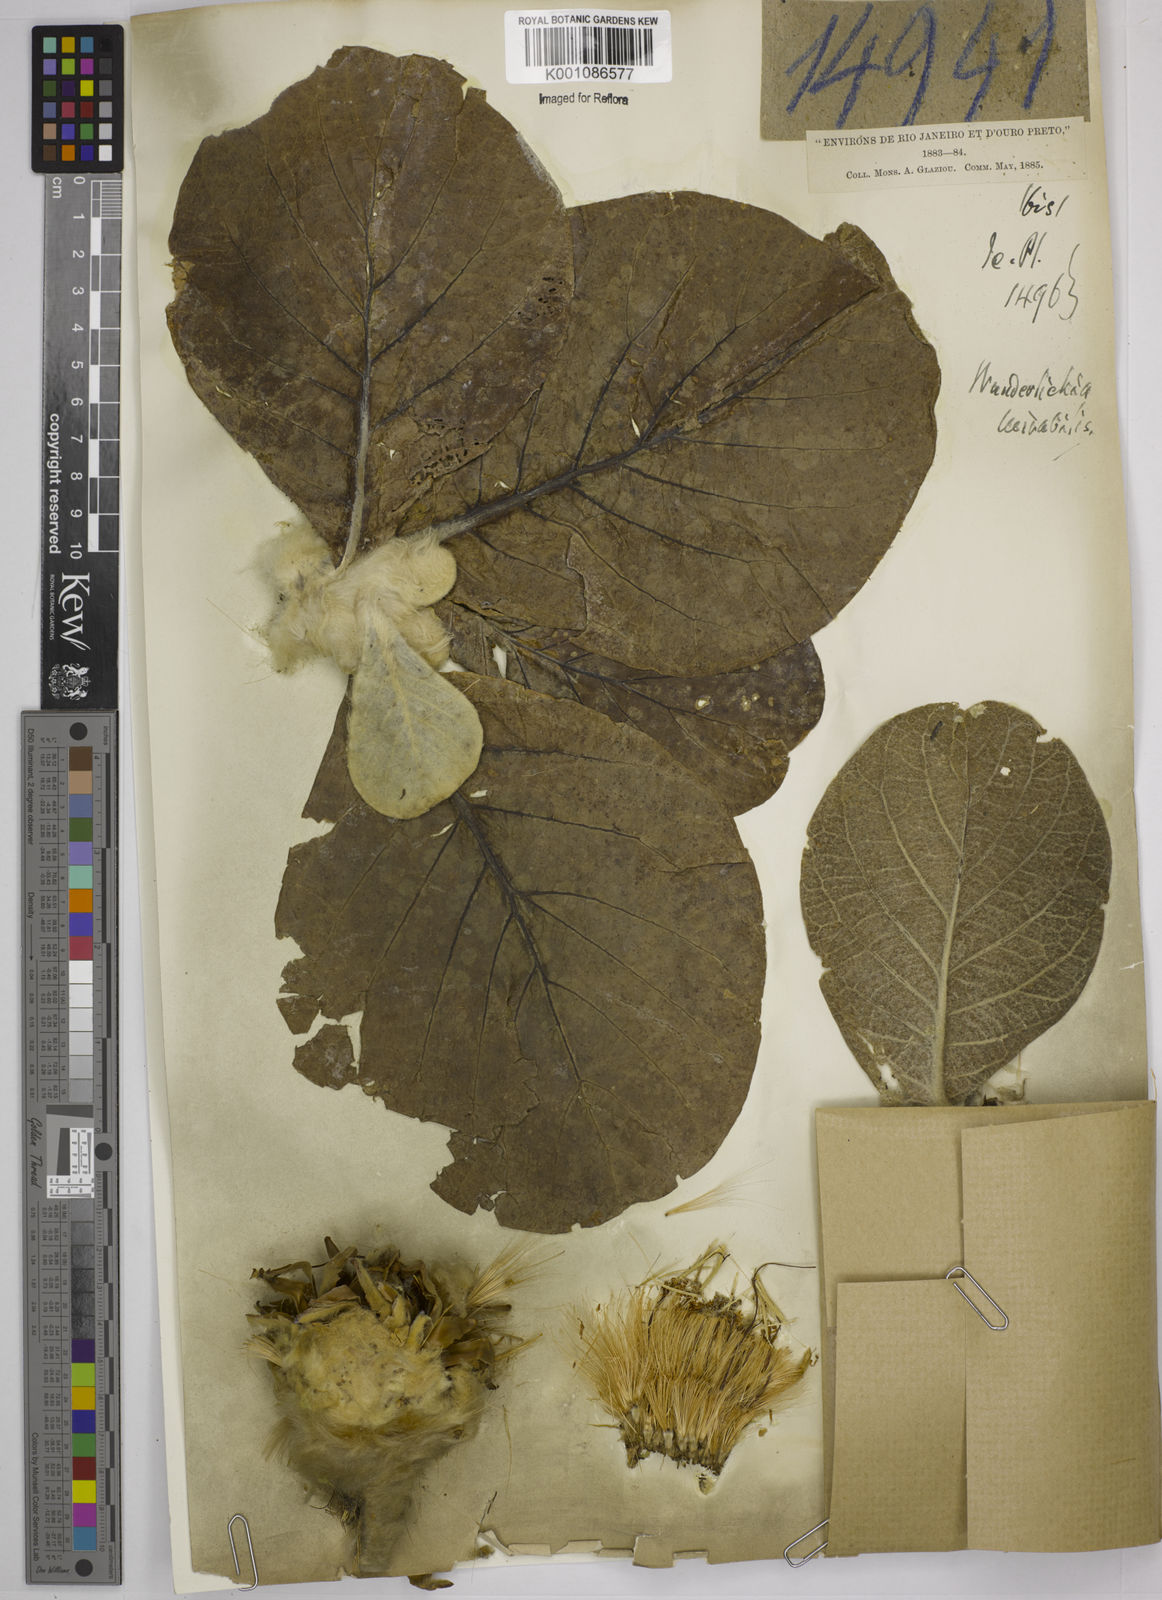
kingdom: Plantae
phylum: Tracheophyta
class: Magnoliopsida
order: Asterales
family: Asteraceae
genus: Wunderlichia
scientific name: Wunderlichia mirabilis
